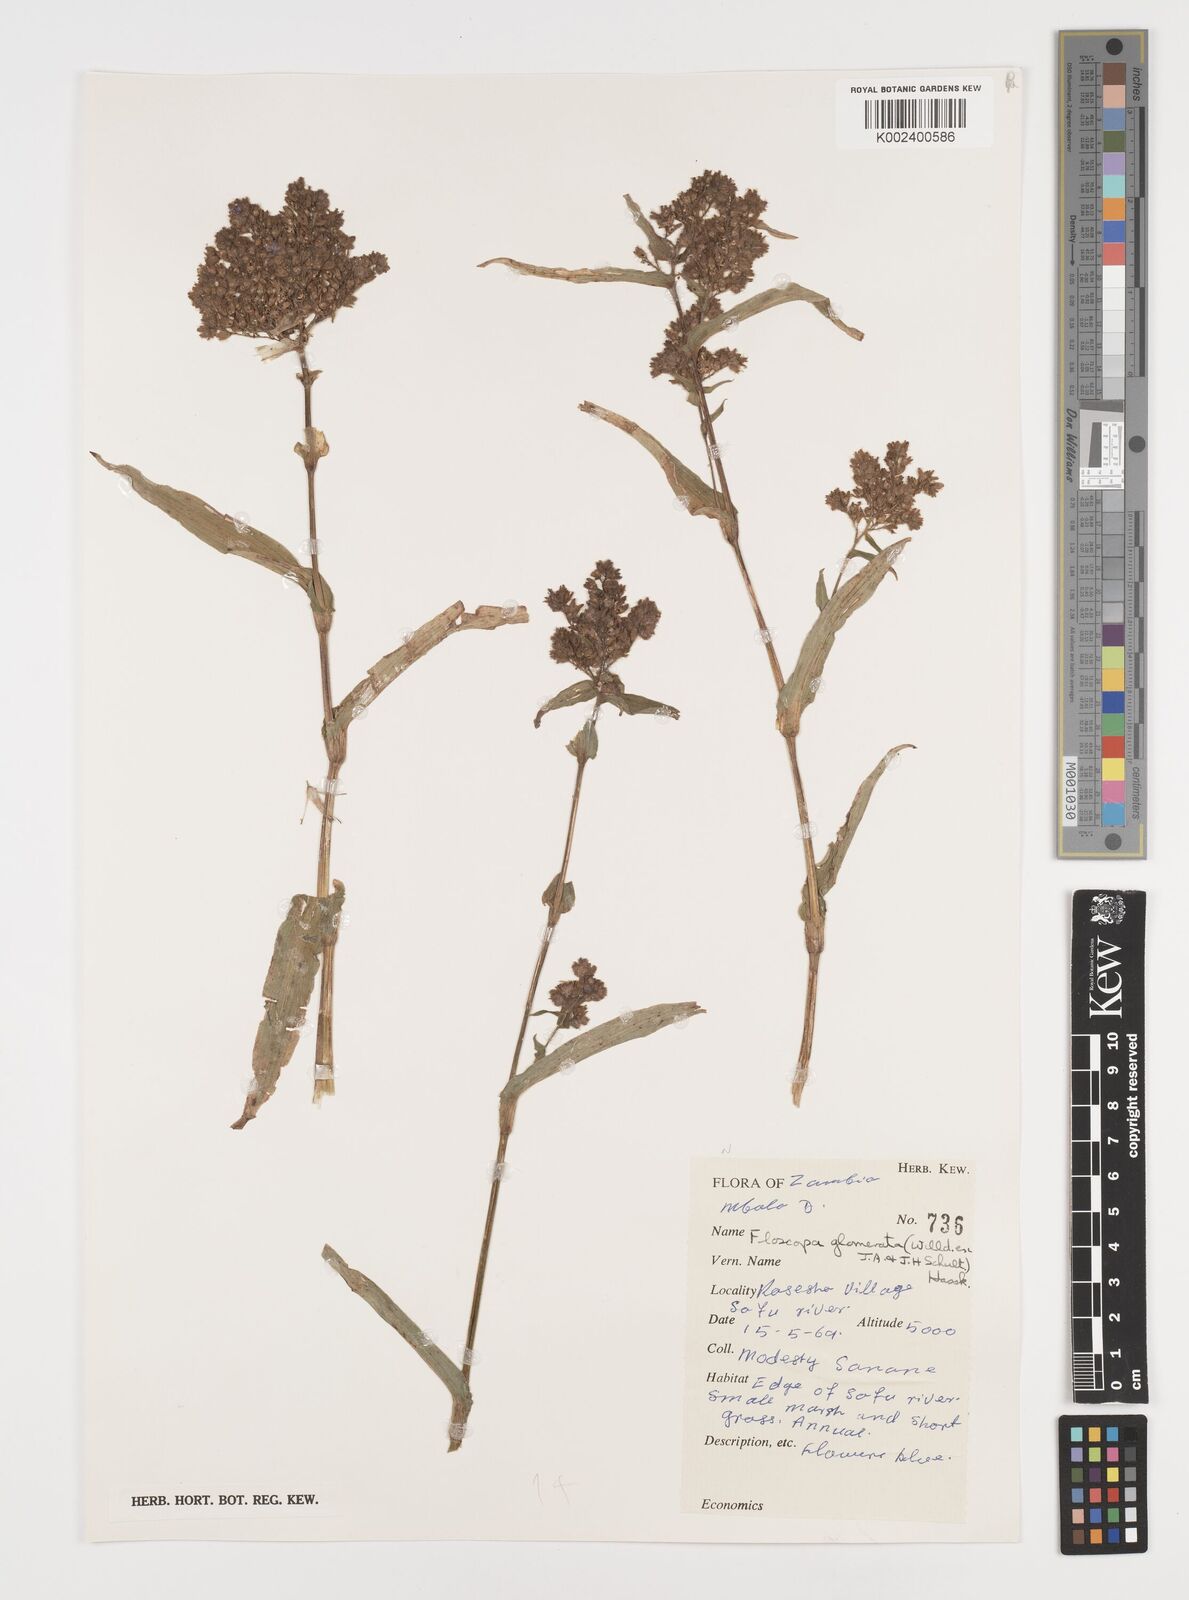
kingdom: Plantae
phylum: Tracheophyta
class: Liliopsida
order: Commelinales
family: Commelinaceae
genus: Floscopa
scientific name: Floscopa glomerata
